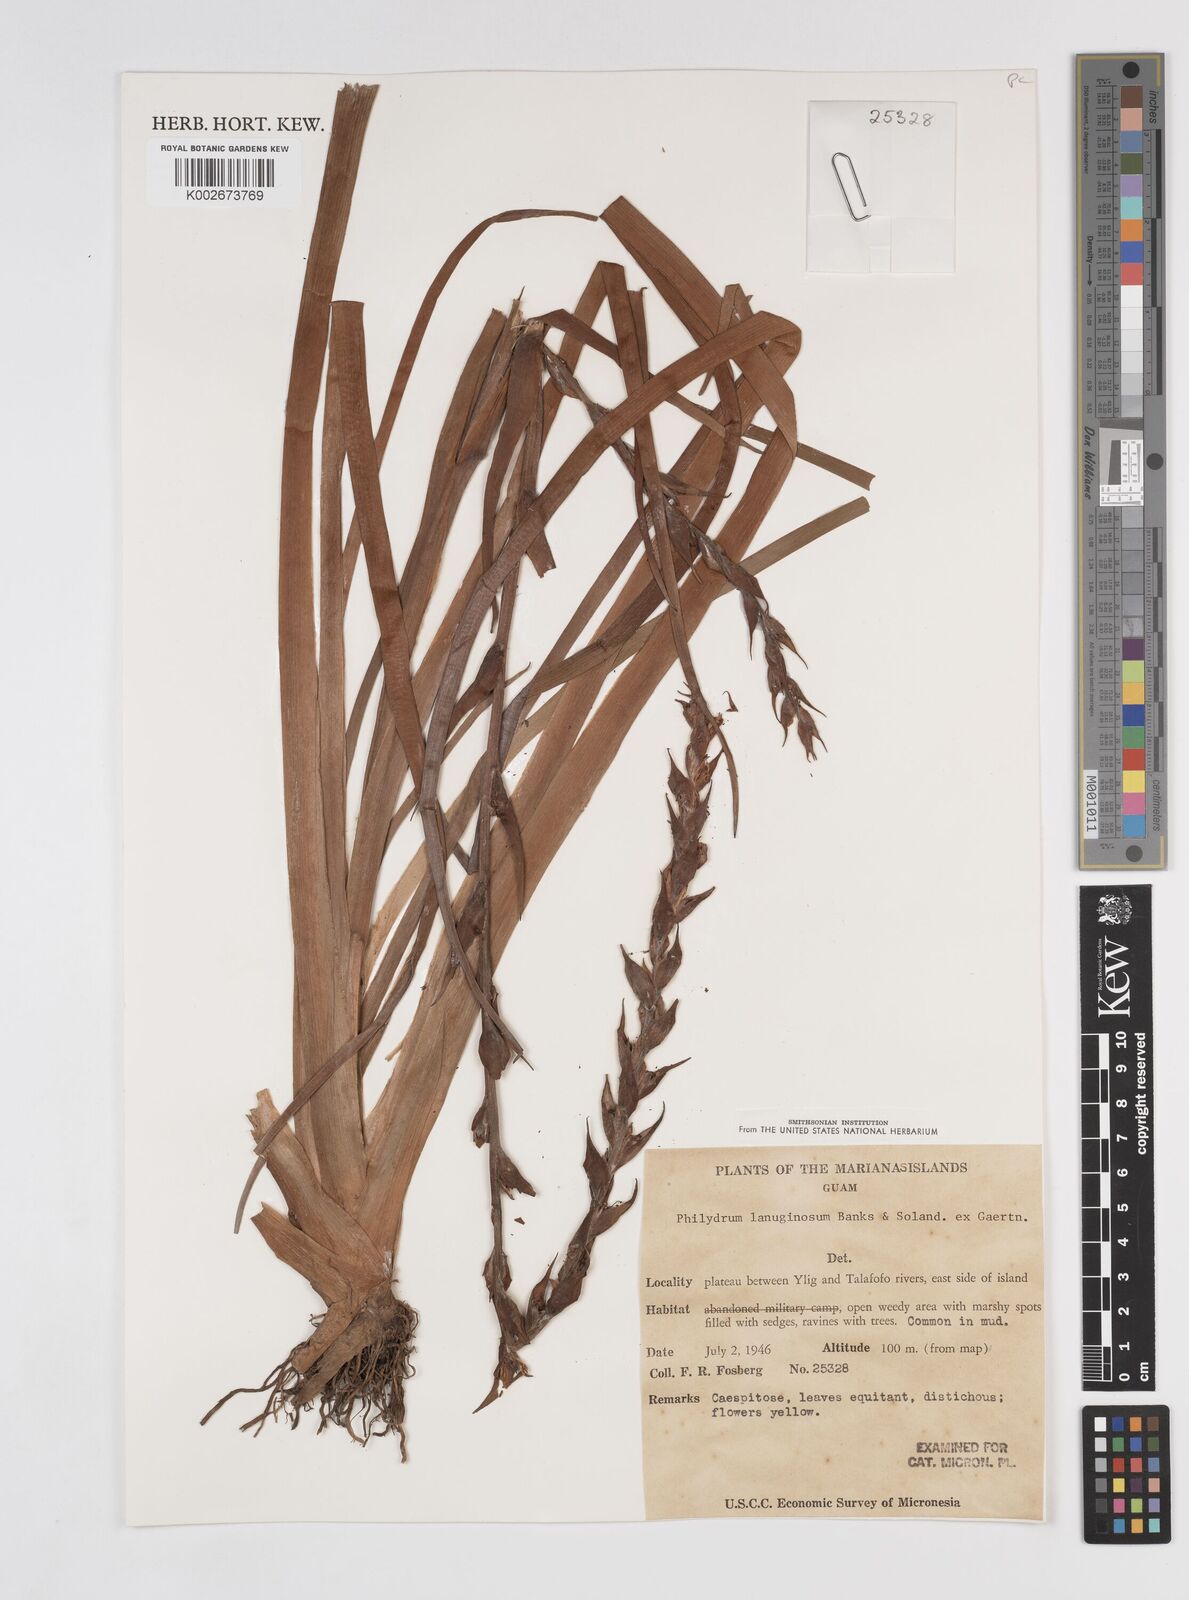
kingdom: Plantae
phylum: Tracheophyta
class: Liliopsida
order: Commelinales
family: Philydraceae
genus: Philydrum
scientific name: Philydrum lanuginosum
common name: Woolly frog's mouth
